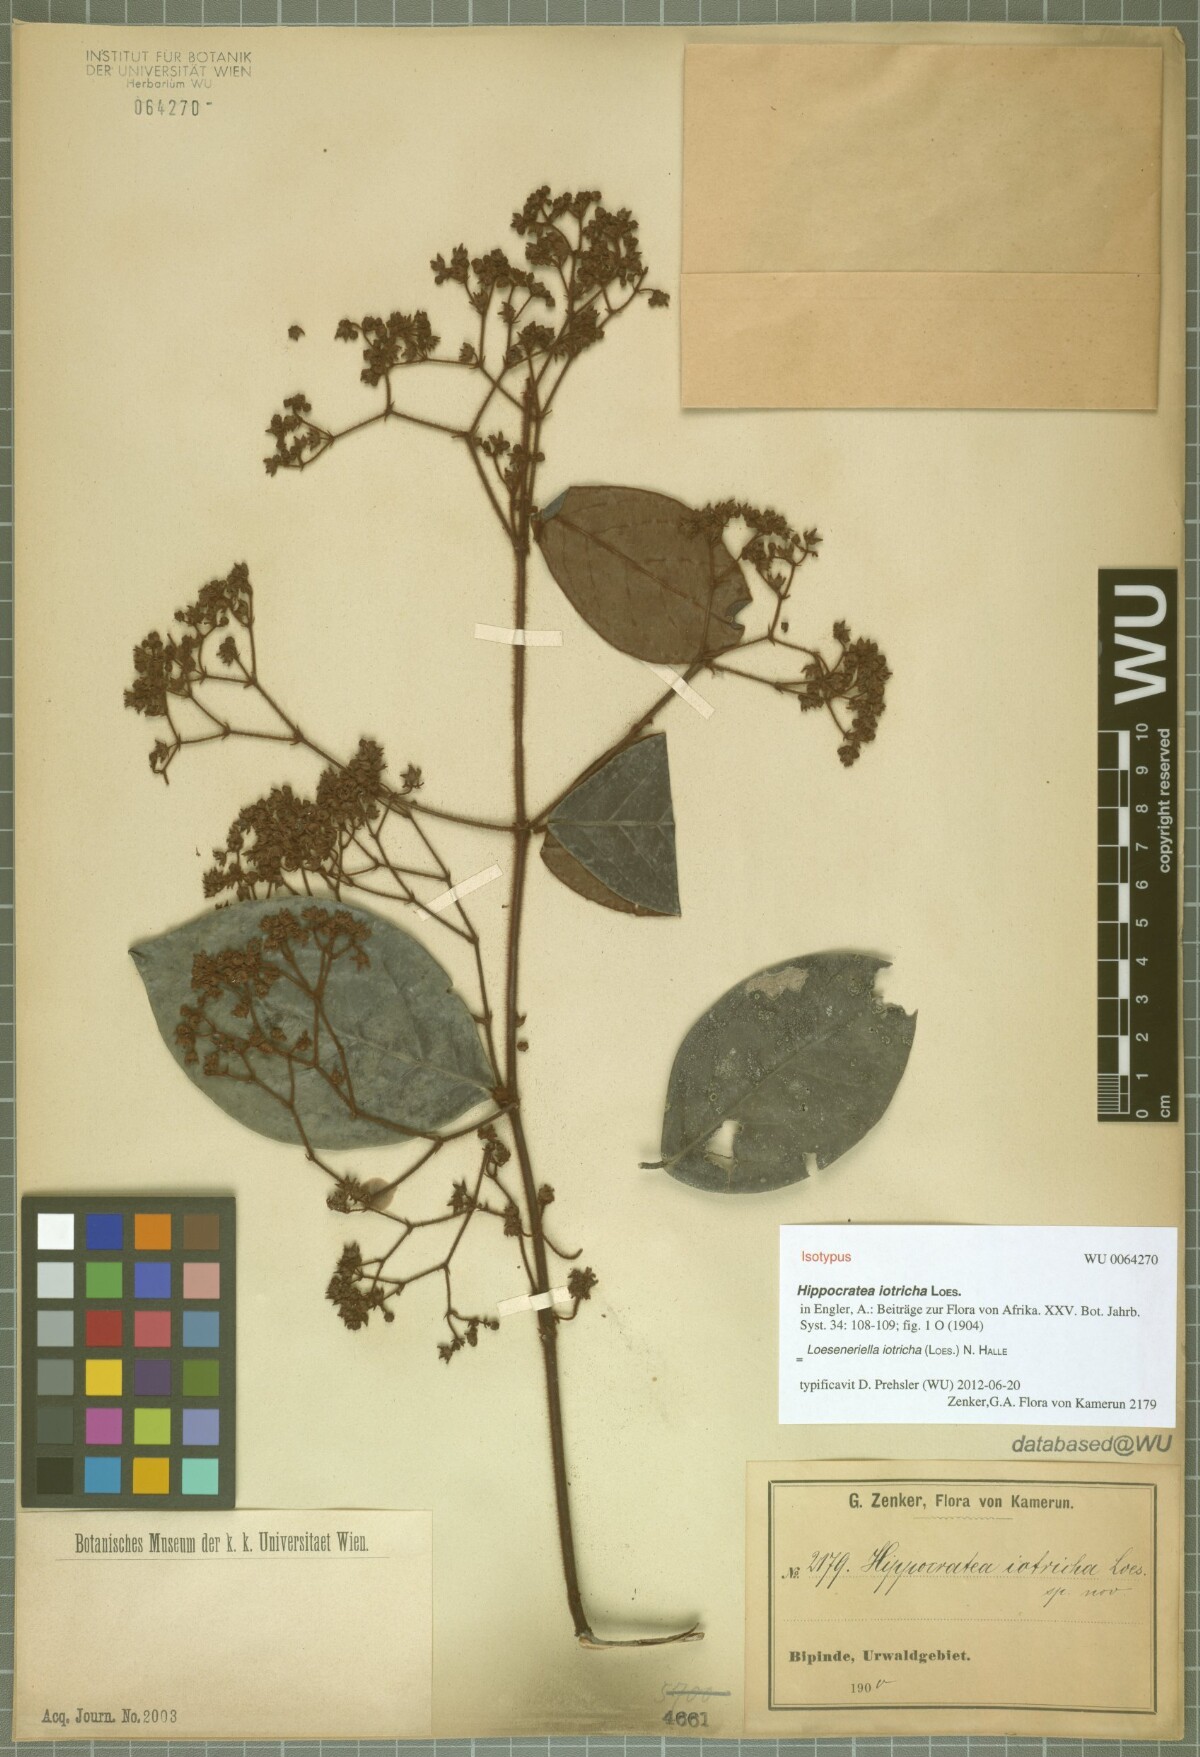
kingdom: Plantae
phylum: Tracheophyta
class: Magnoliopsida
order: Celastrales
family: Celastraceae
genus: Loeseneriella
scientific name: Loeseneriella iotricha
